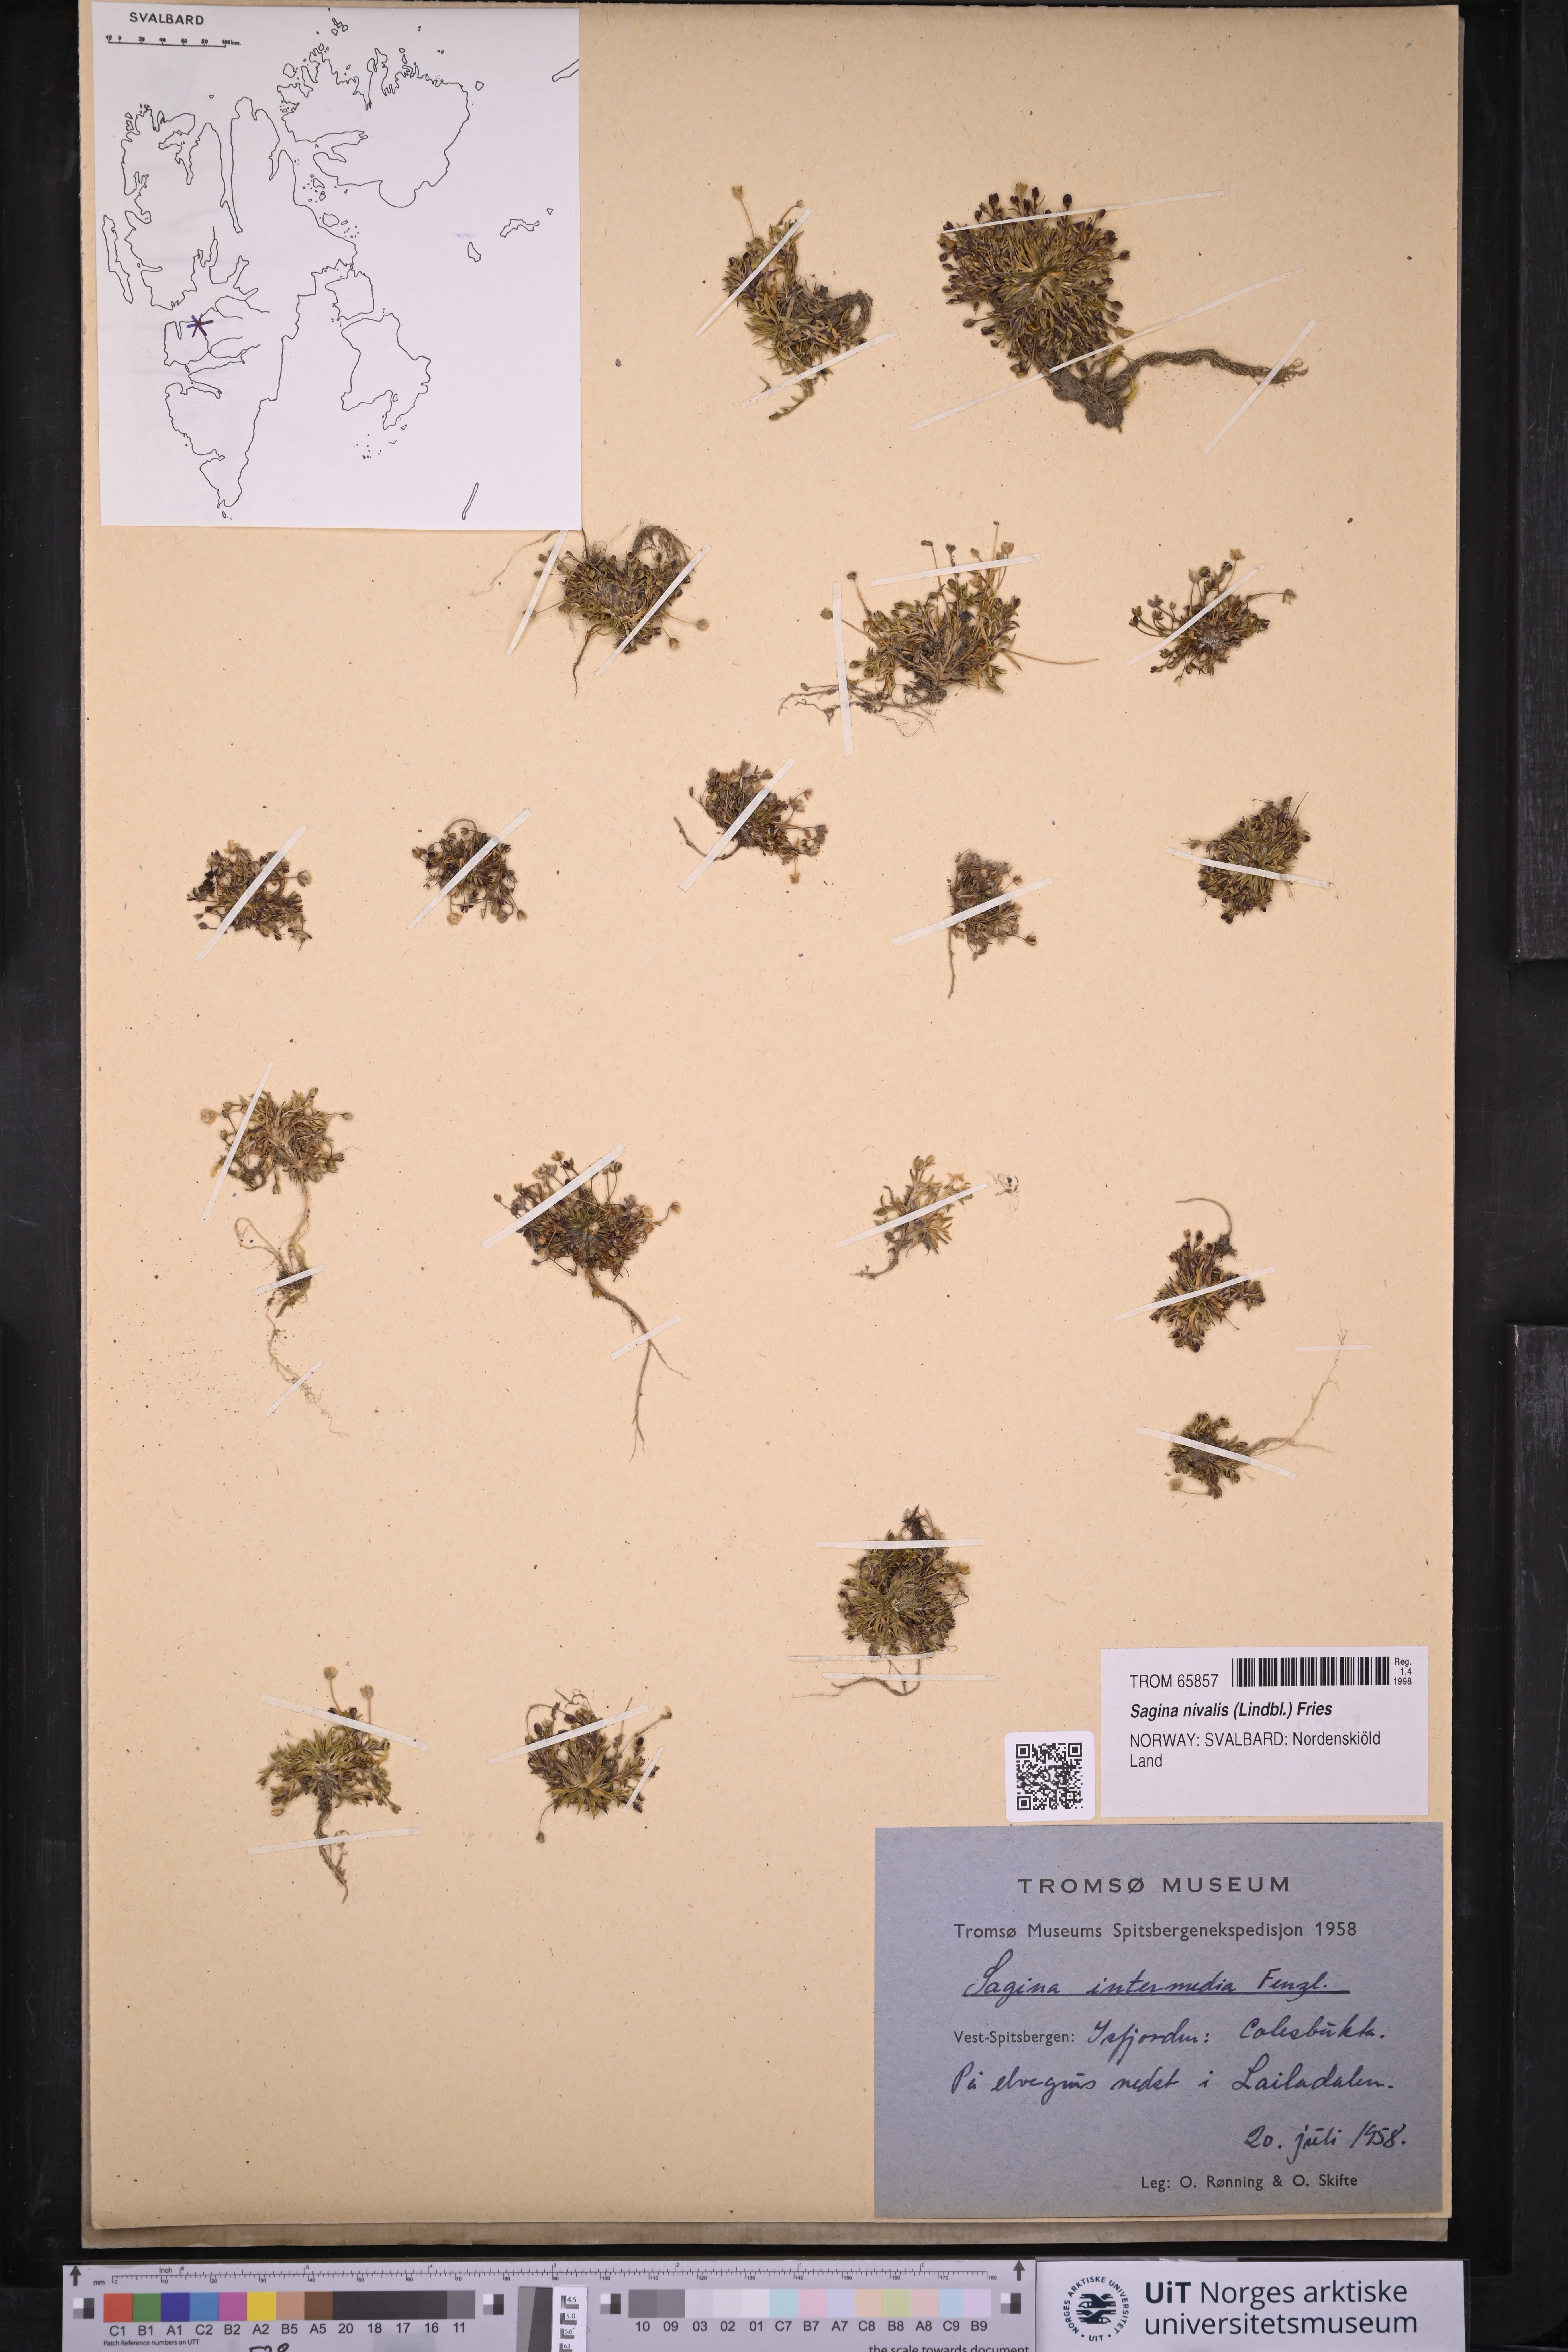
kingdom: Plantae
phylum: Tracheophyta
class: Magnoliopsida
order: Caryophyllales
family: Caryophyllaceae
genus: Sagina
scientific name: Sagina nivalis
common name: Snow pearlwort
